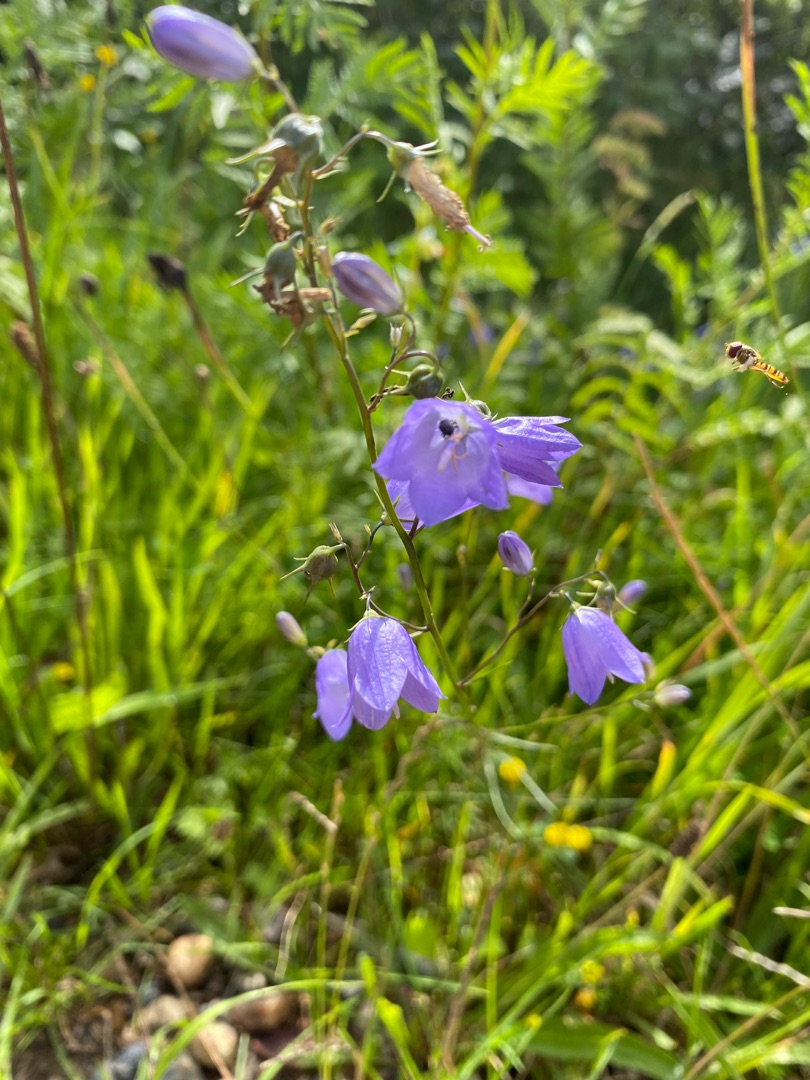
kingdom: Plantae
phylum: Tracheophyta
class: Magnoliopsida
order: Asterales
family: Campanulaceae
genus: Campanula
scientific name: Campanula rotundifolia
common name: Liden klokke
